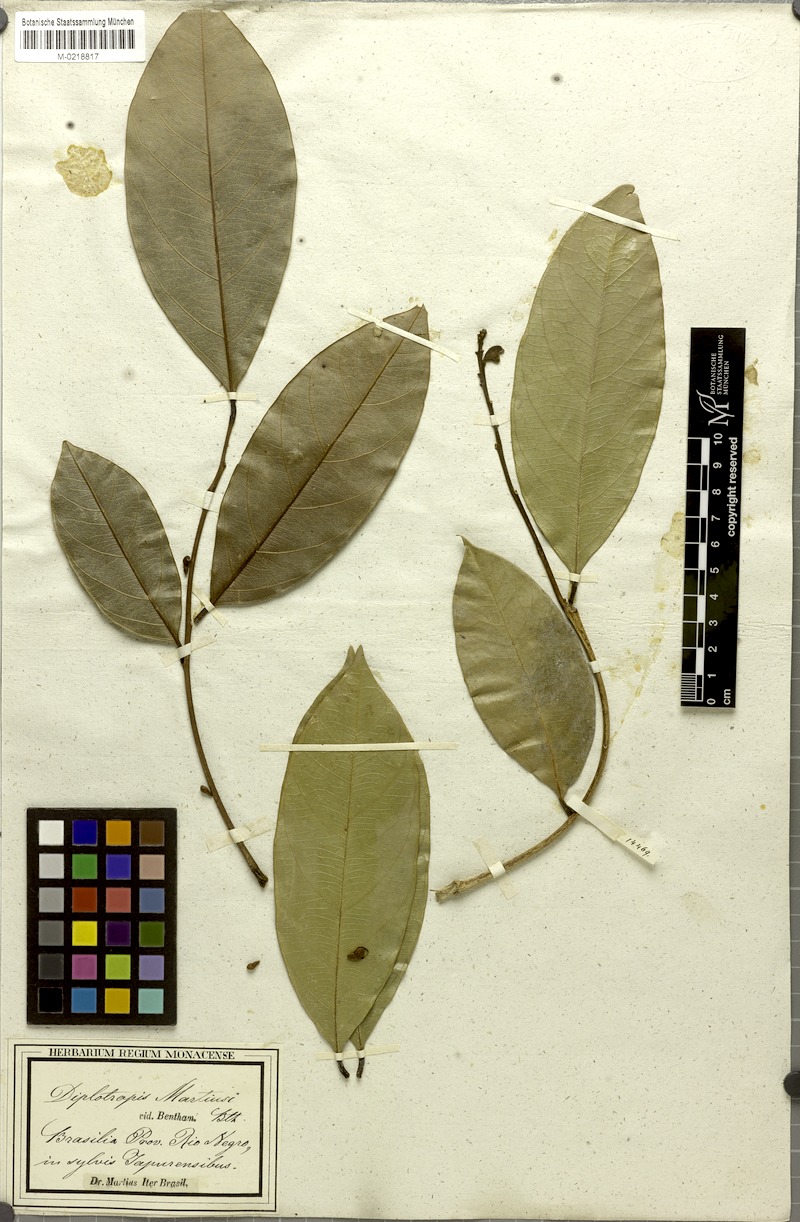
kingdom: Plantae
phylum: Tracheophyta
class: Magnoliopsida
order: Fabales
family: Fabaceae
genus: Diplotropis
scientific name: Diplotropis martiusii
